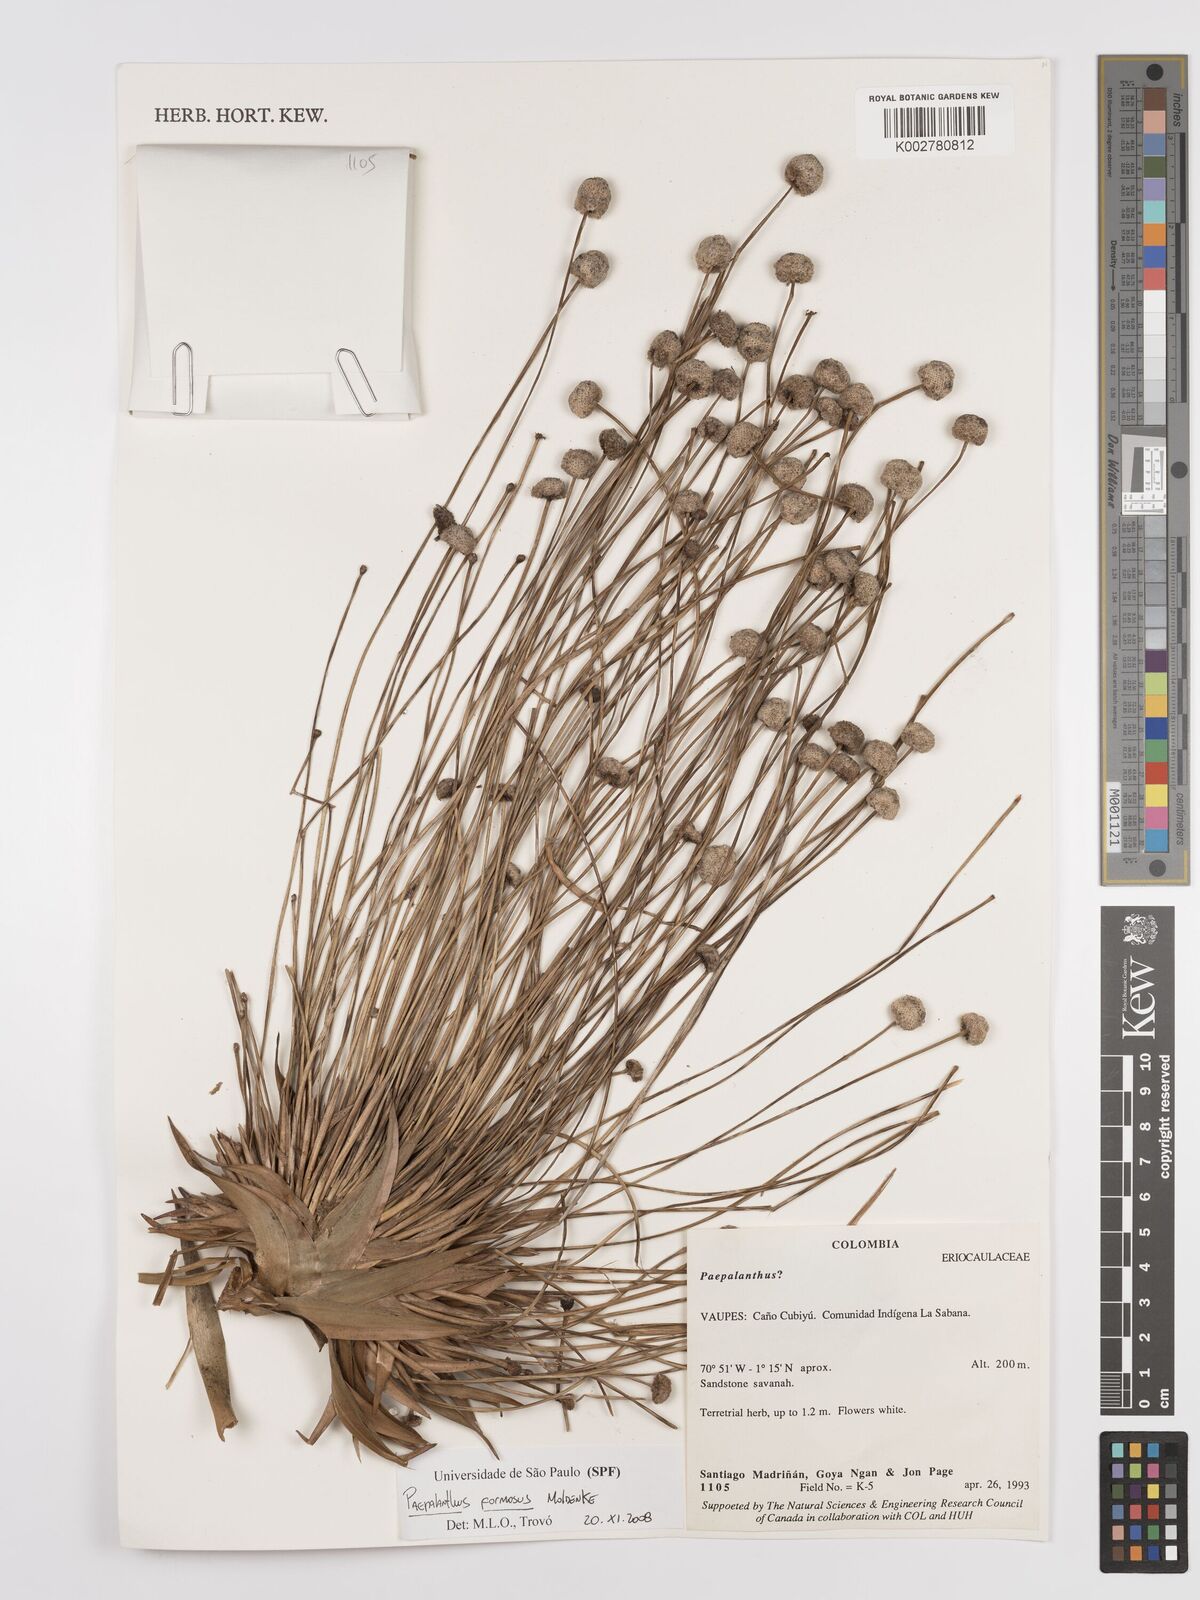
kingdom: Plantae
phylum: Tracheophyta
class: Liliopsida
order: Poales
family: Eriocaulaceae
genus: Paepalanthus
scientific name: Paepalanthus chiquitensis
